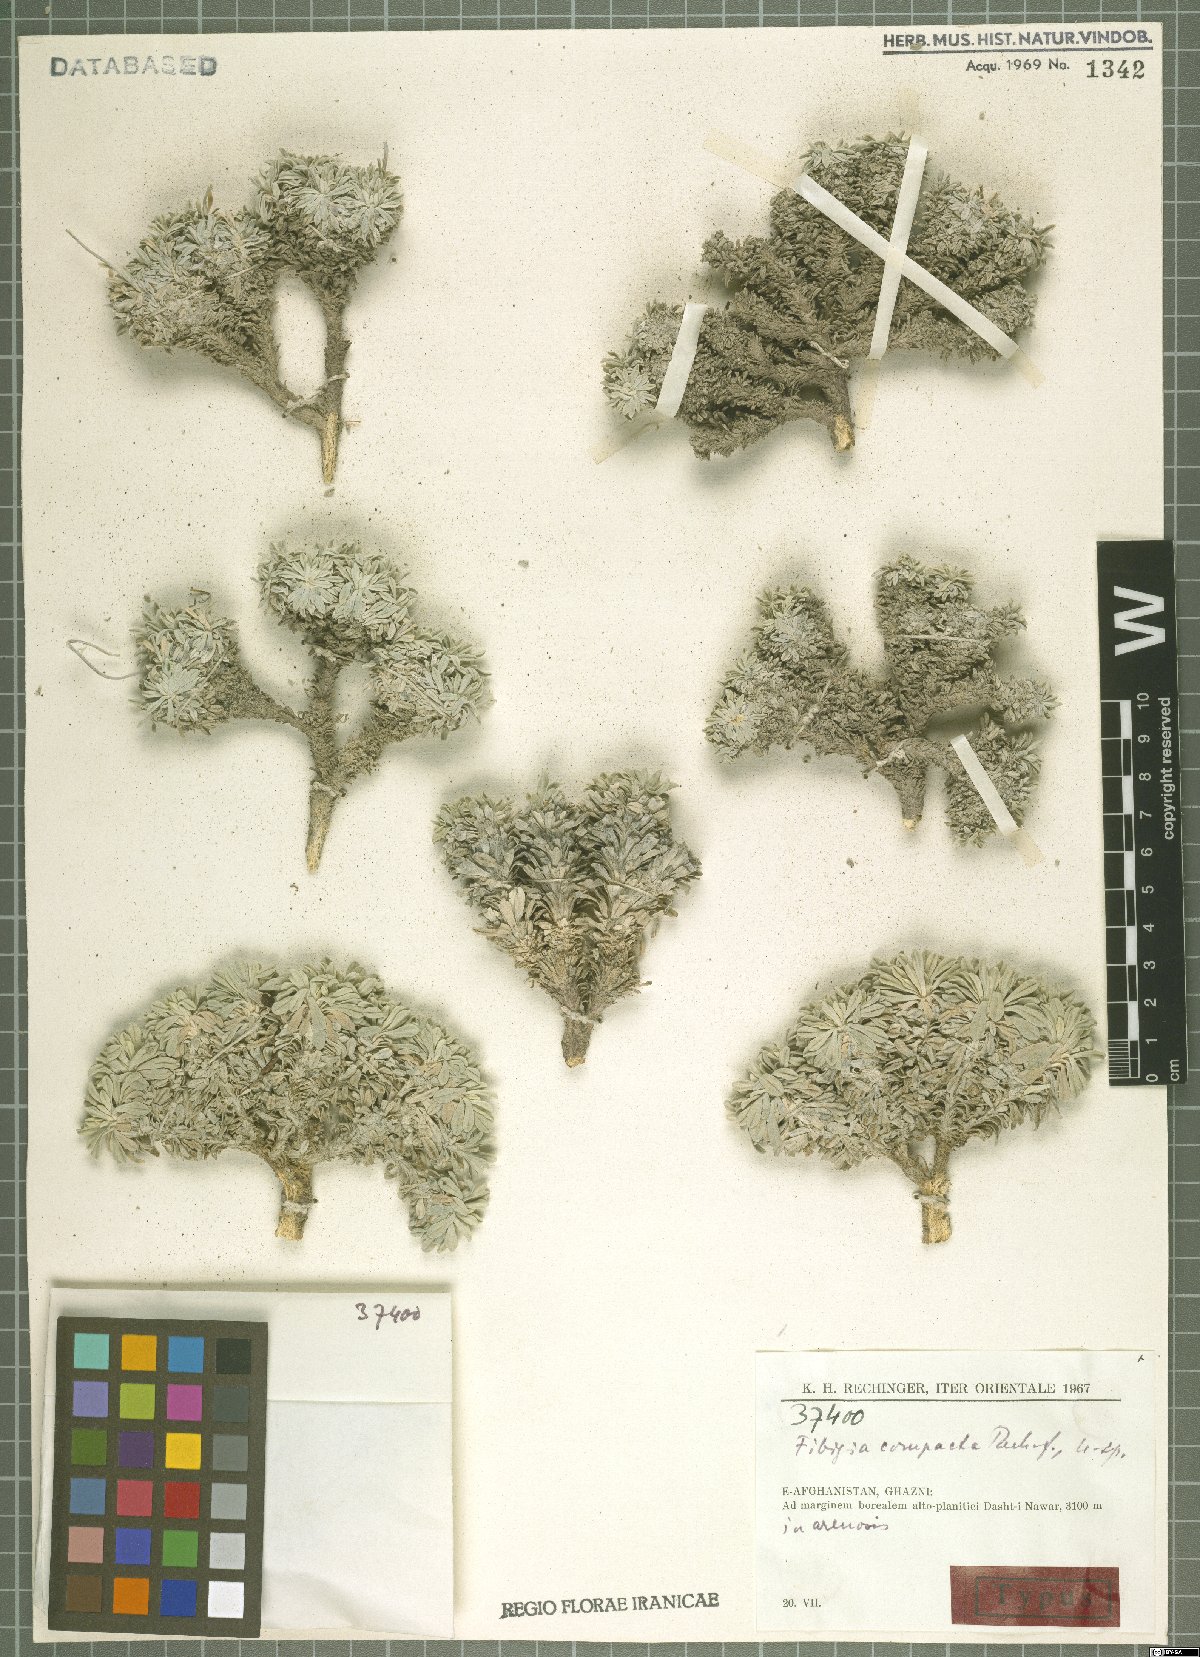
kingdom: Plantae
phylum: Tracheophyta
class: Magnoliopsida
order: Brassicales
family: Brassicaceae
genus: Irania
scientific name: Irania compacta
